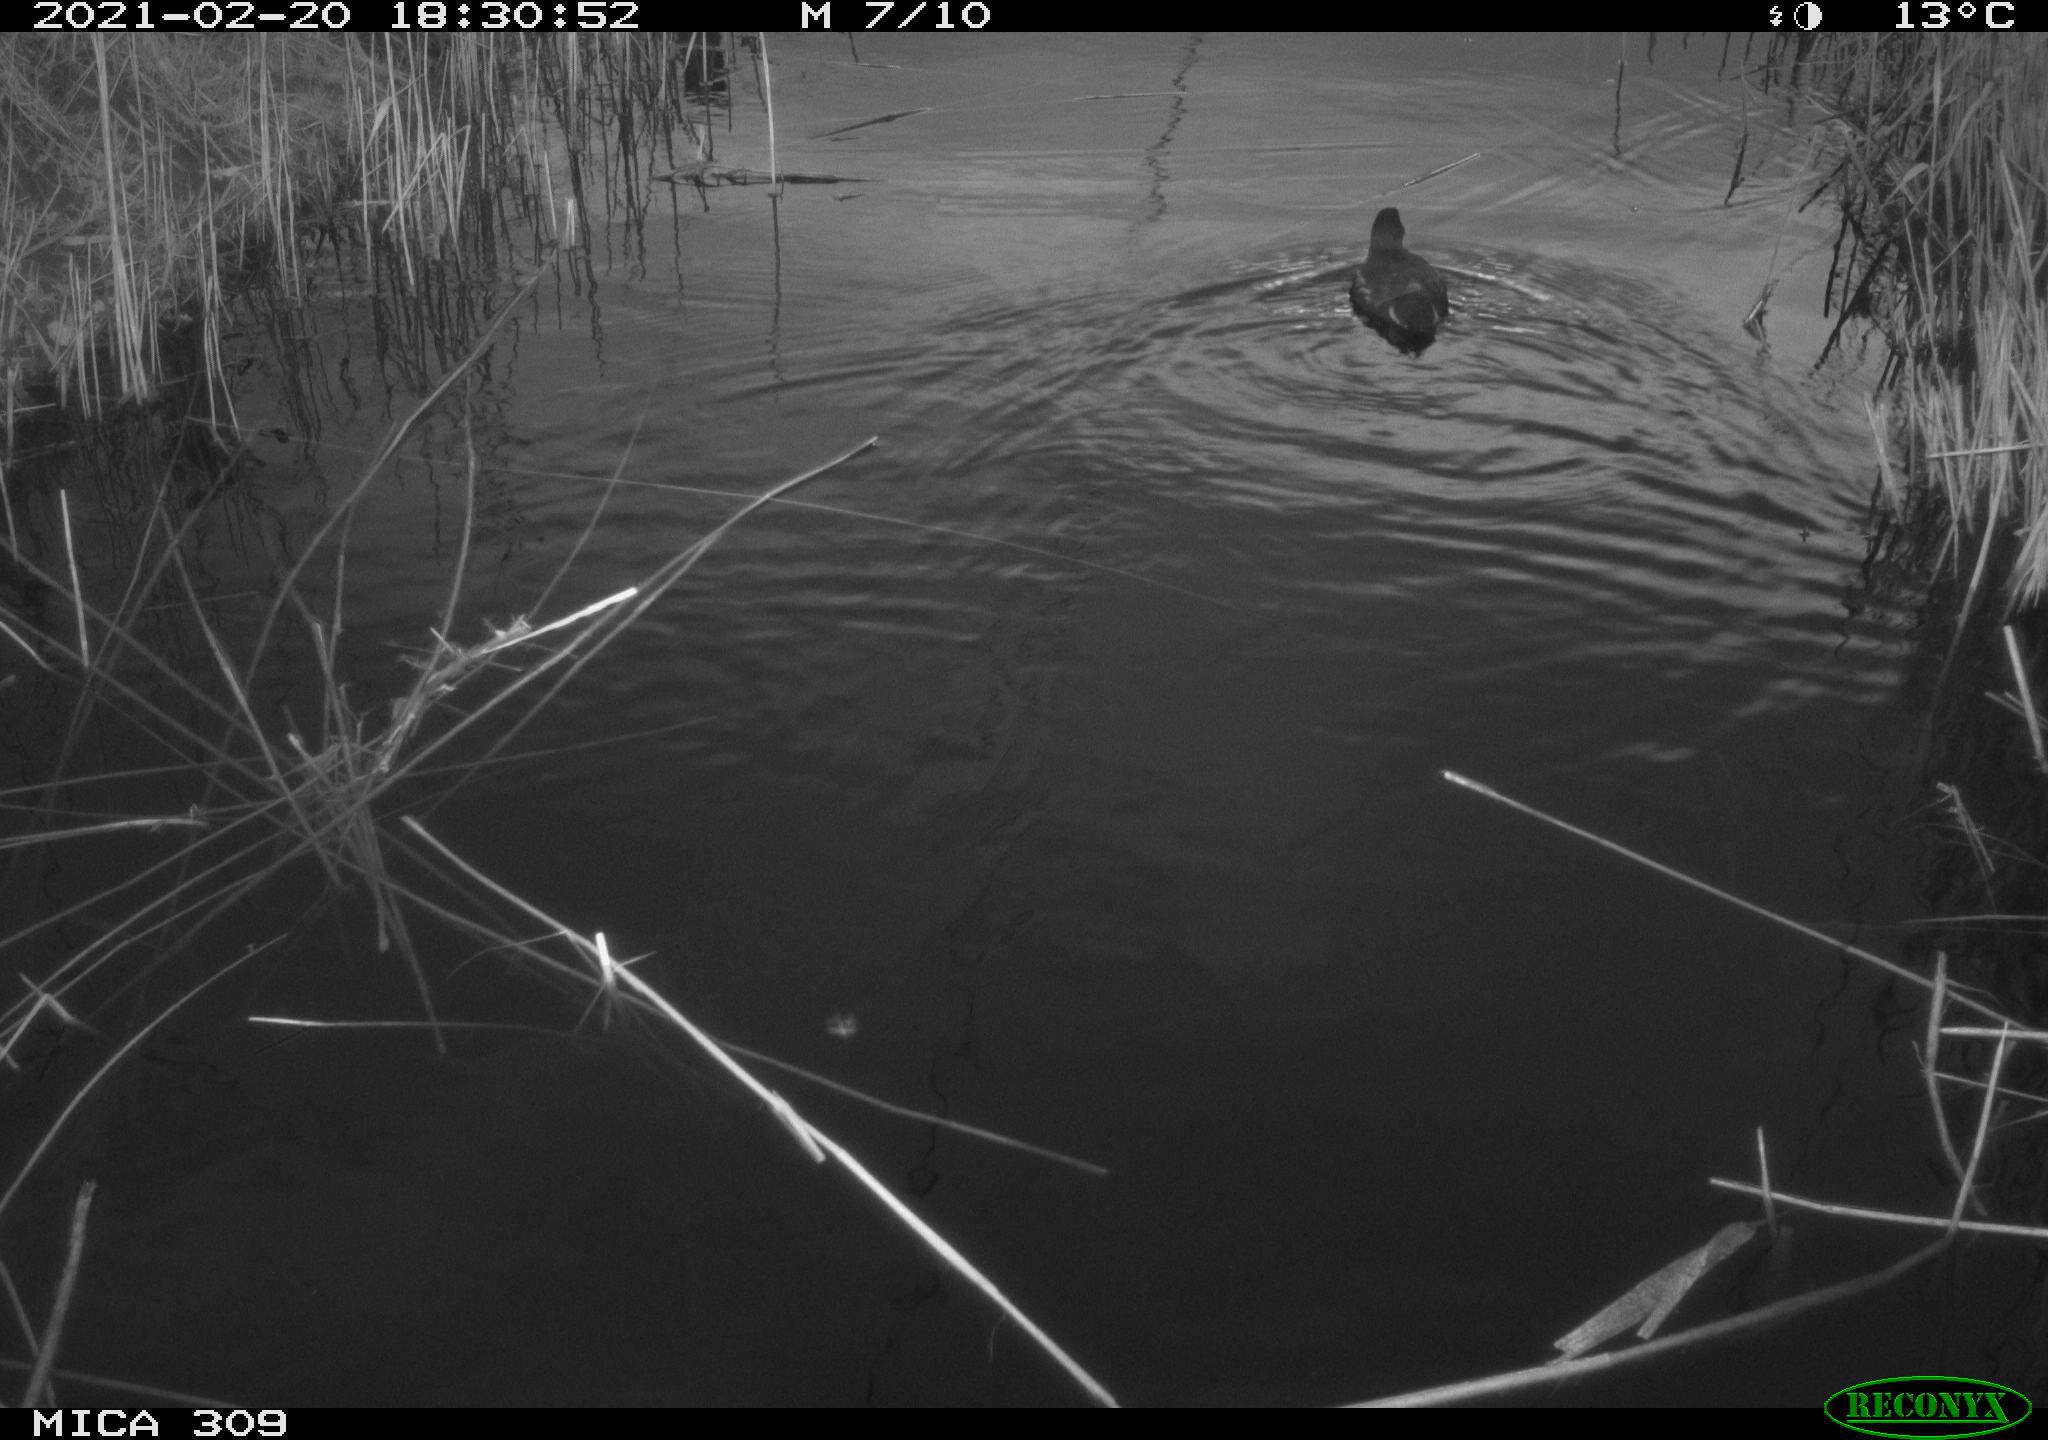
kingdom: Animalia
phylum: Chordata
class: Aves
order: Gruiformes
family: Rallidae
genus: Gallinula
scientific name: Gallinula chloropus
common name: Common moorhen
